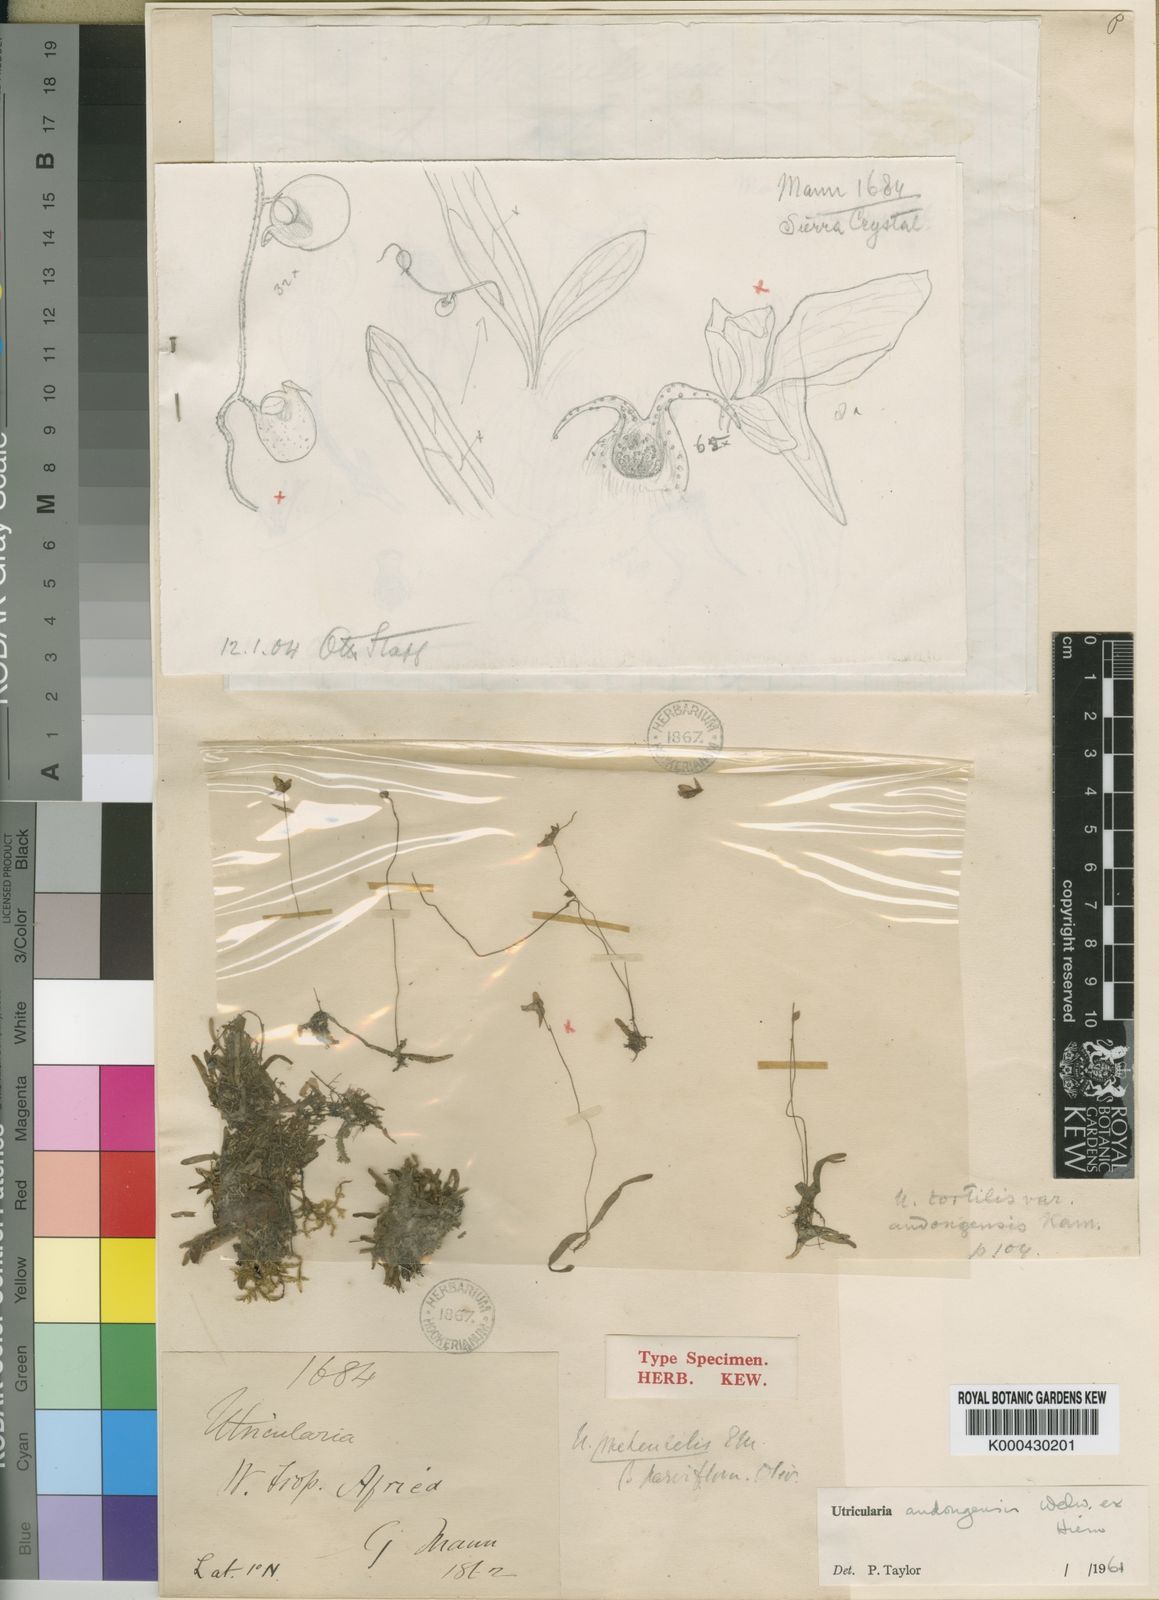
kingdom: Plantae
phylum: Tracheophyta
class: Magnoliopsida
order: Lamiales
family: Lentibulariaceae
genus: Utricularia
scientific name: Utricularia andongensis
